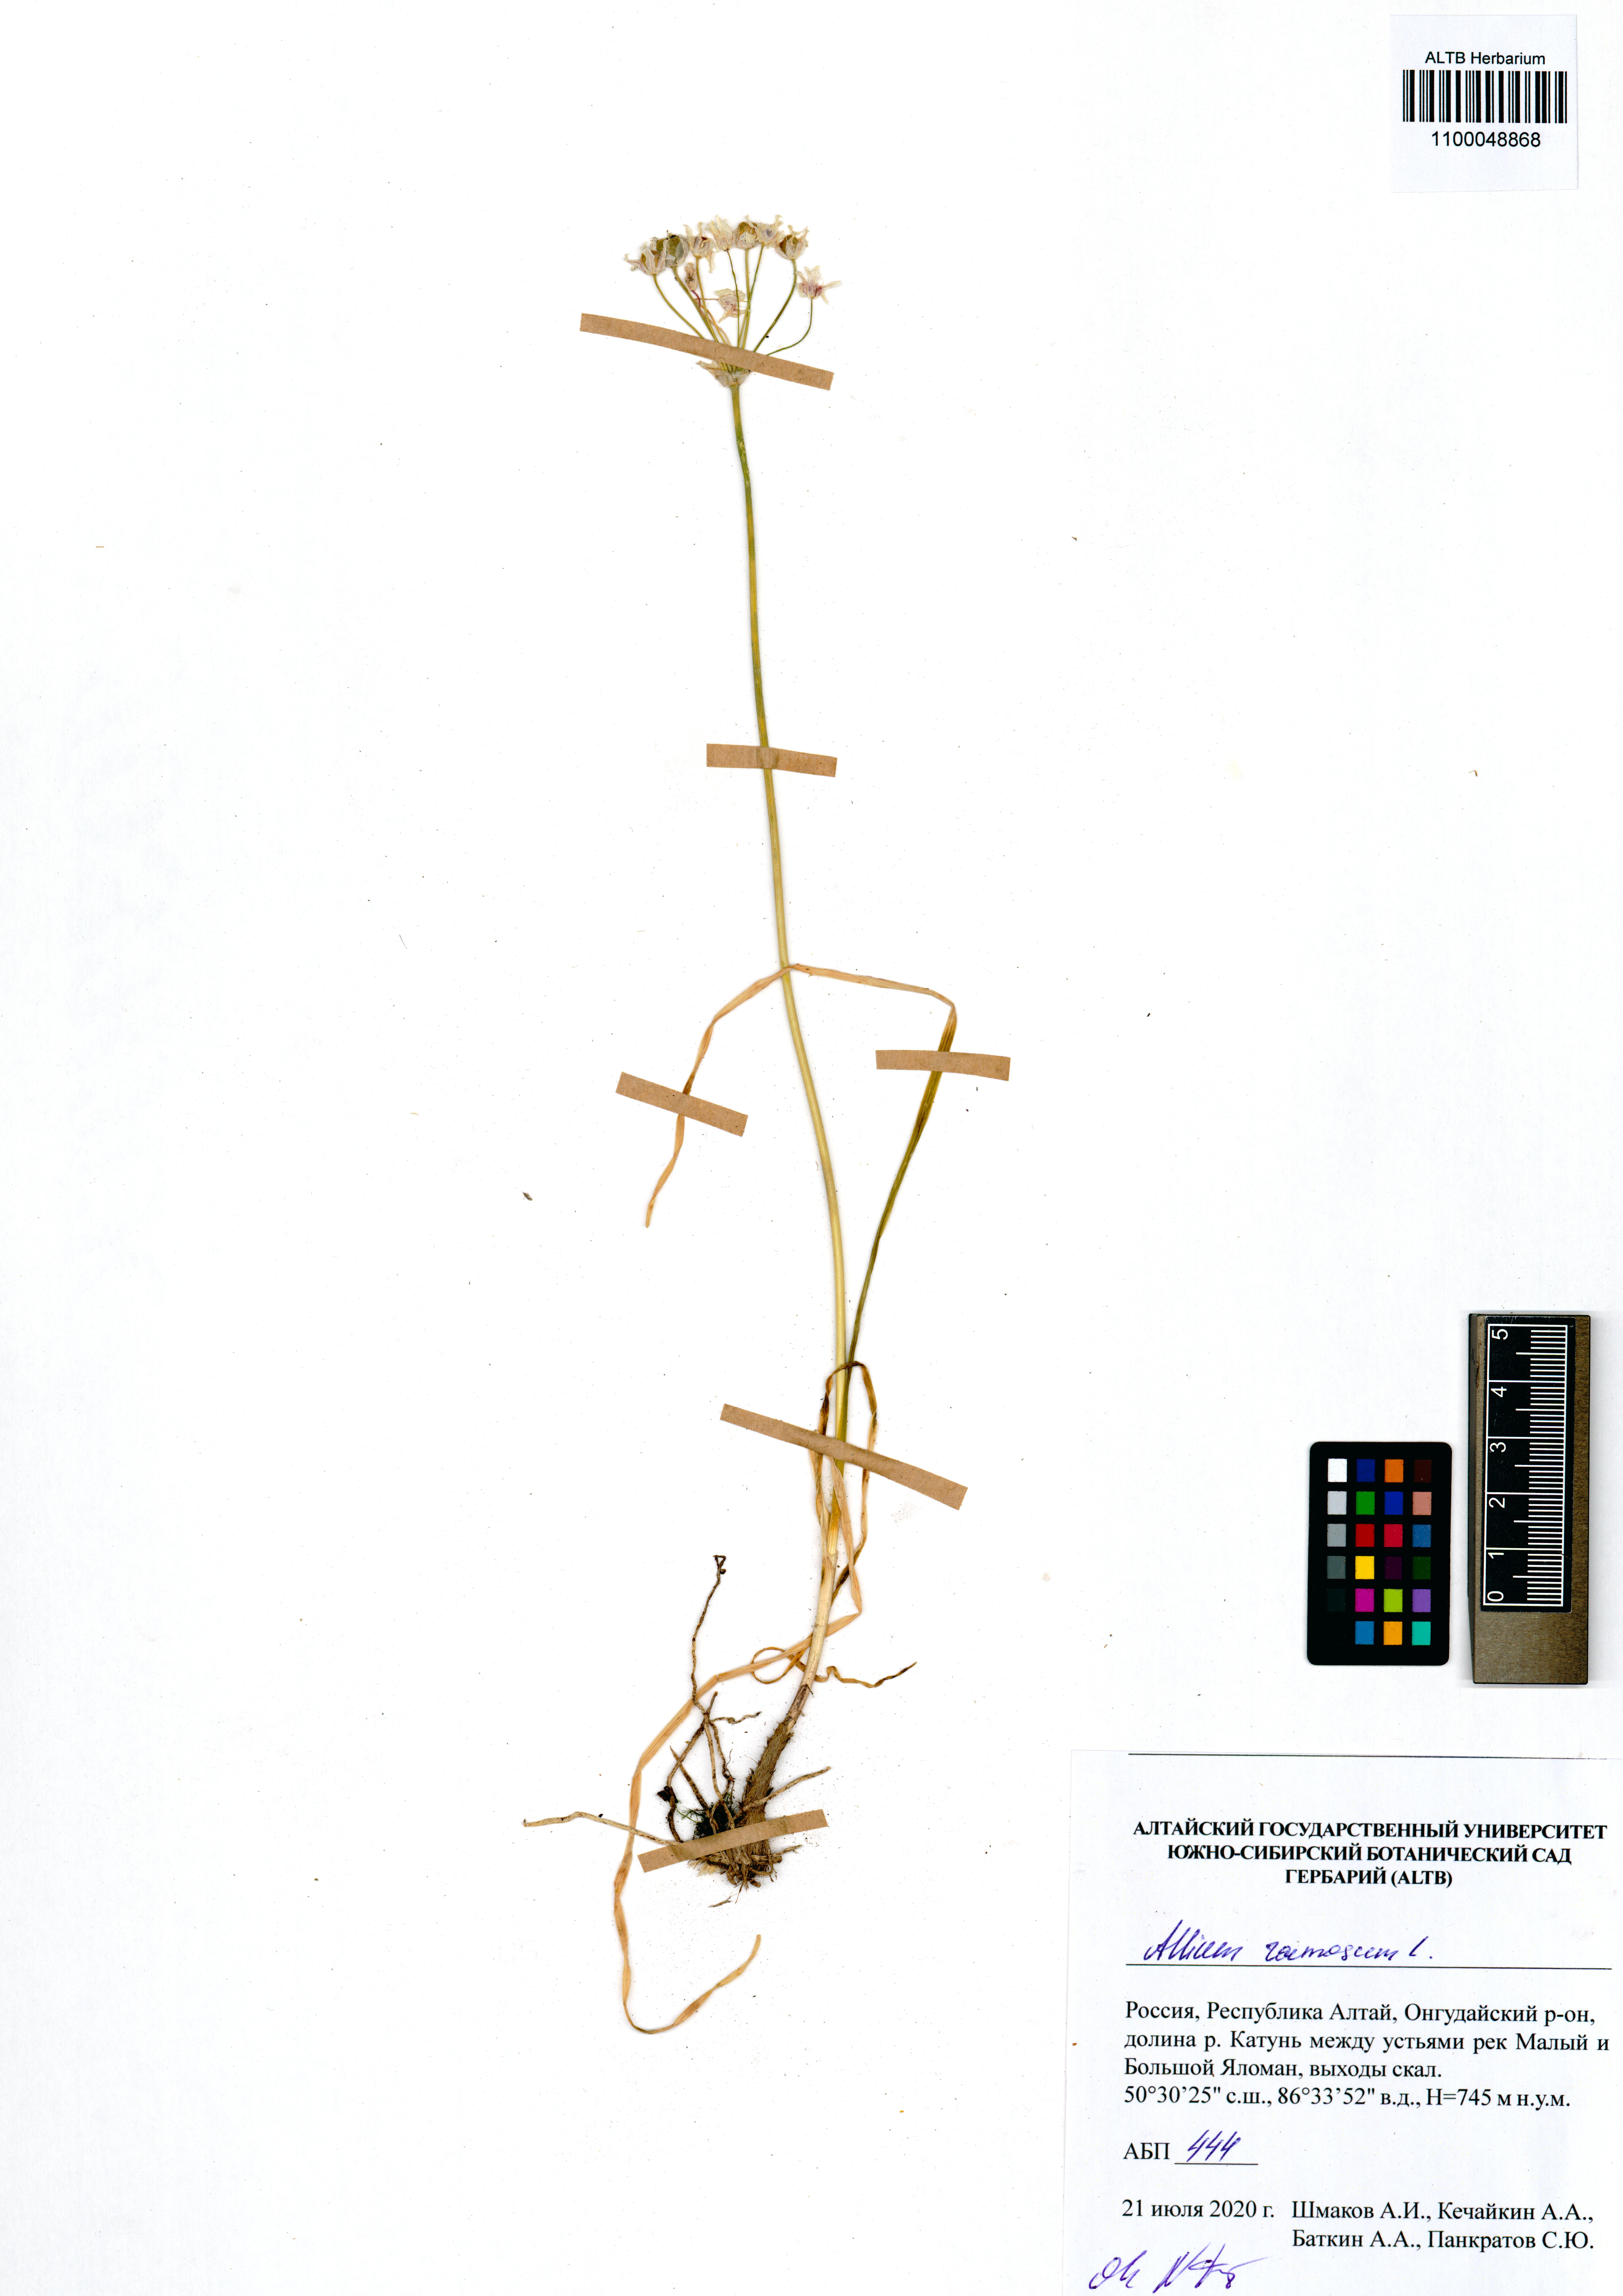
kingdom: Plantae
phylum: Tracheophyta
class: Liliopsida
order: Asparagales
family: Amaryllidaceae
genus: Allium
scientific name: Allium ramosum
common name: Fragrant garlic
